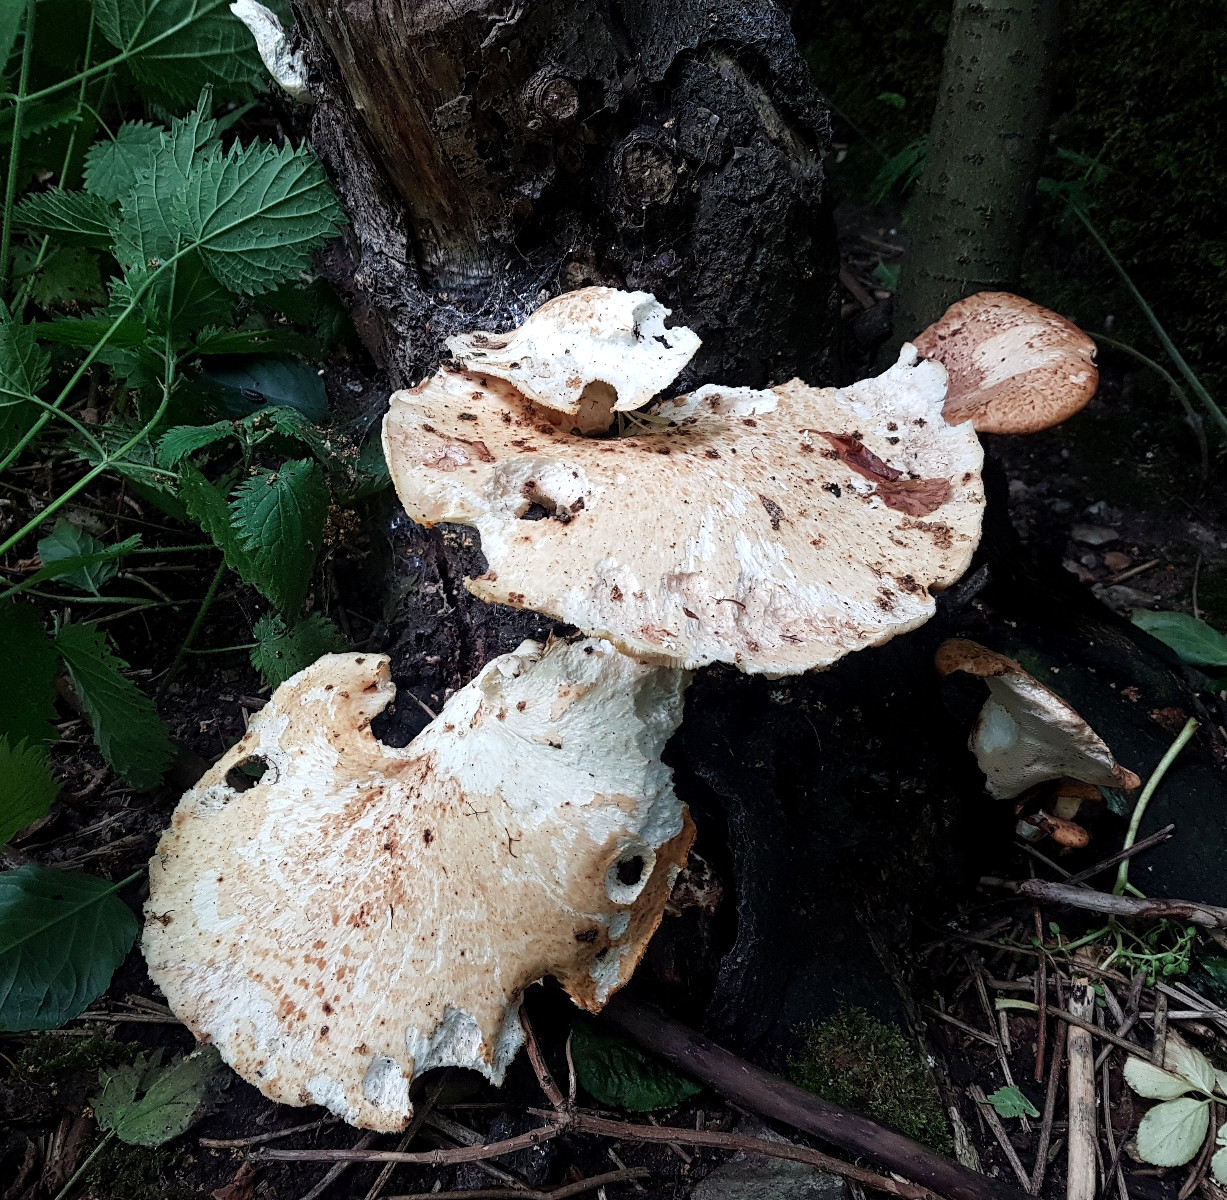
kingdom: Fungi
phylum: Basidiomycota
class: Agaricomycetes
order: Polyporales
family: Polyporaceae
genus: Cerioporus
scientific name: Cerioporus squamosus
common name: skællet stilkporesvamp
